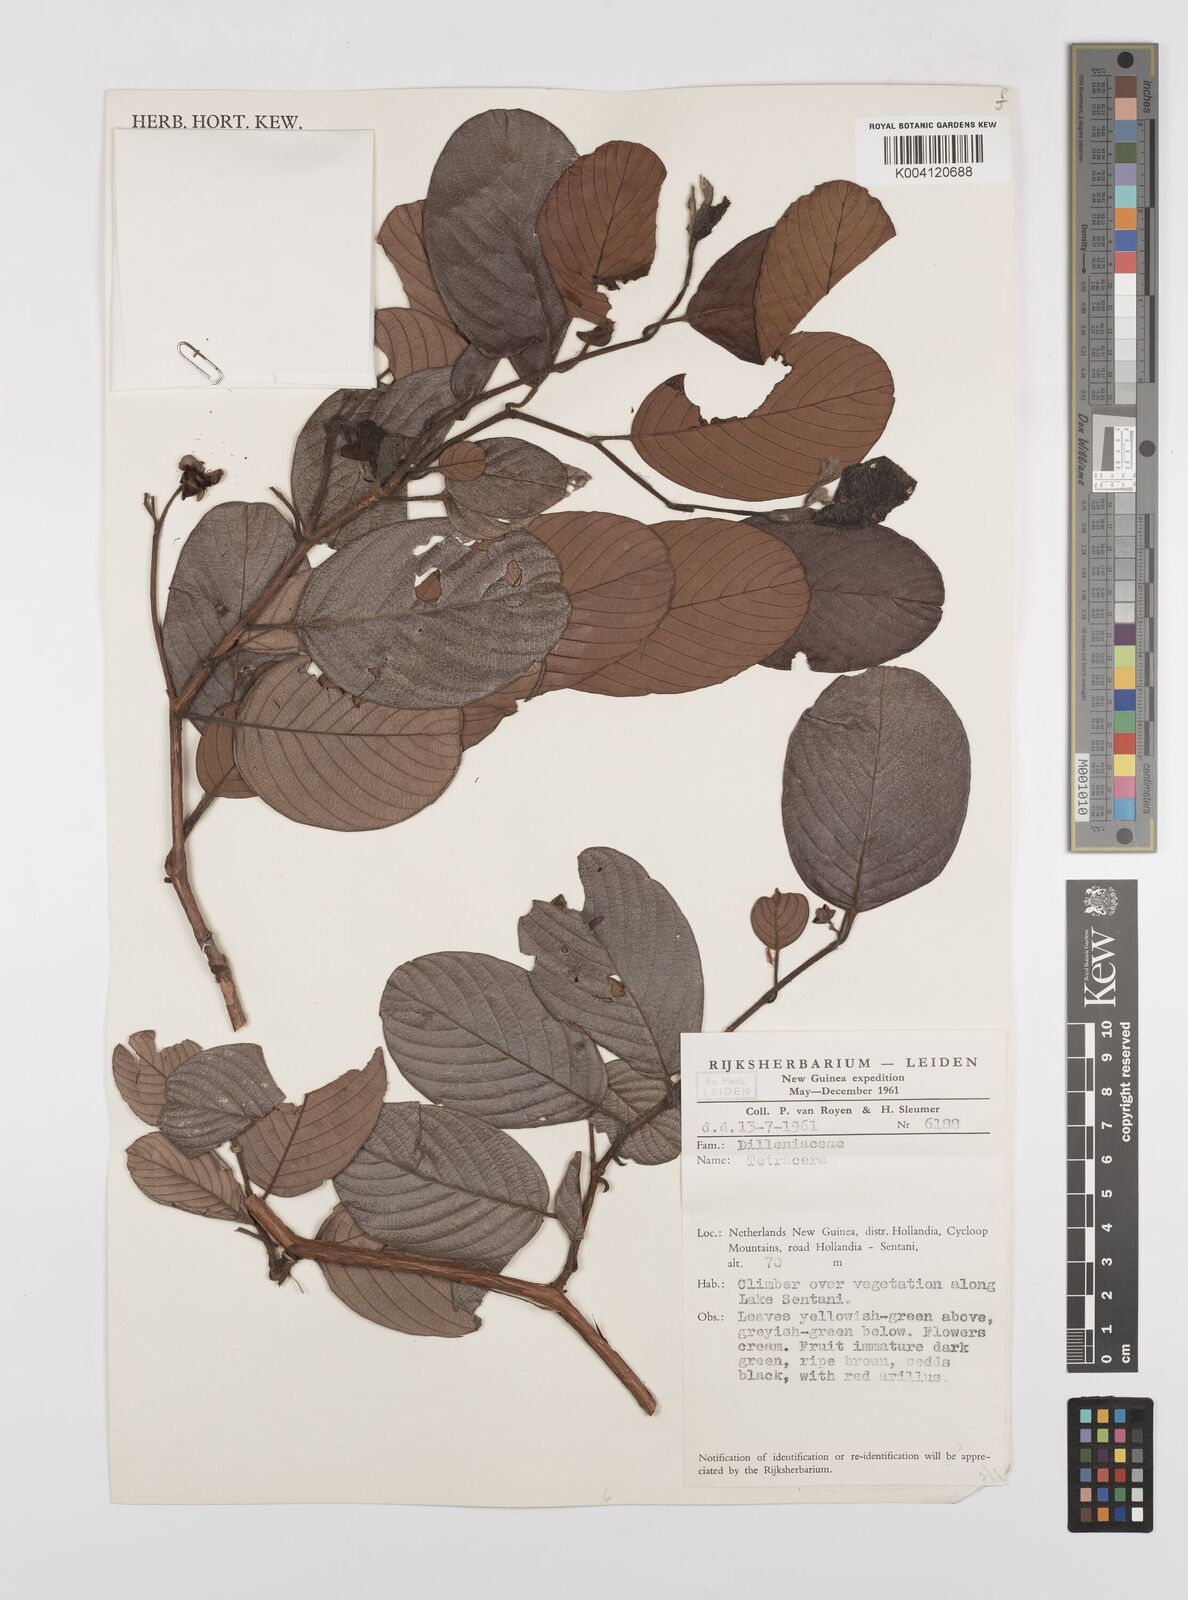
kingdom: Plantae
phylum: Tracheophyta
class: Magnoliopsida
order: Dilleniales
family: Dilleniaceae
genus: Tetracera
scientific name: Tetracera lanuginosa
